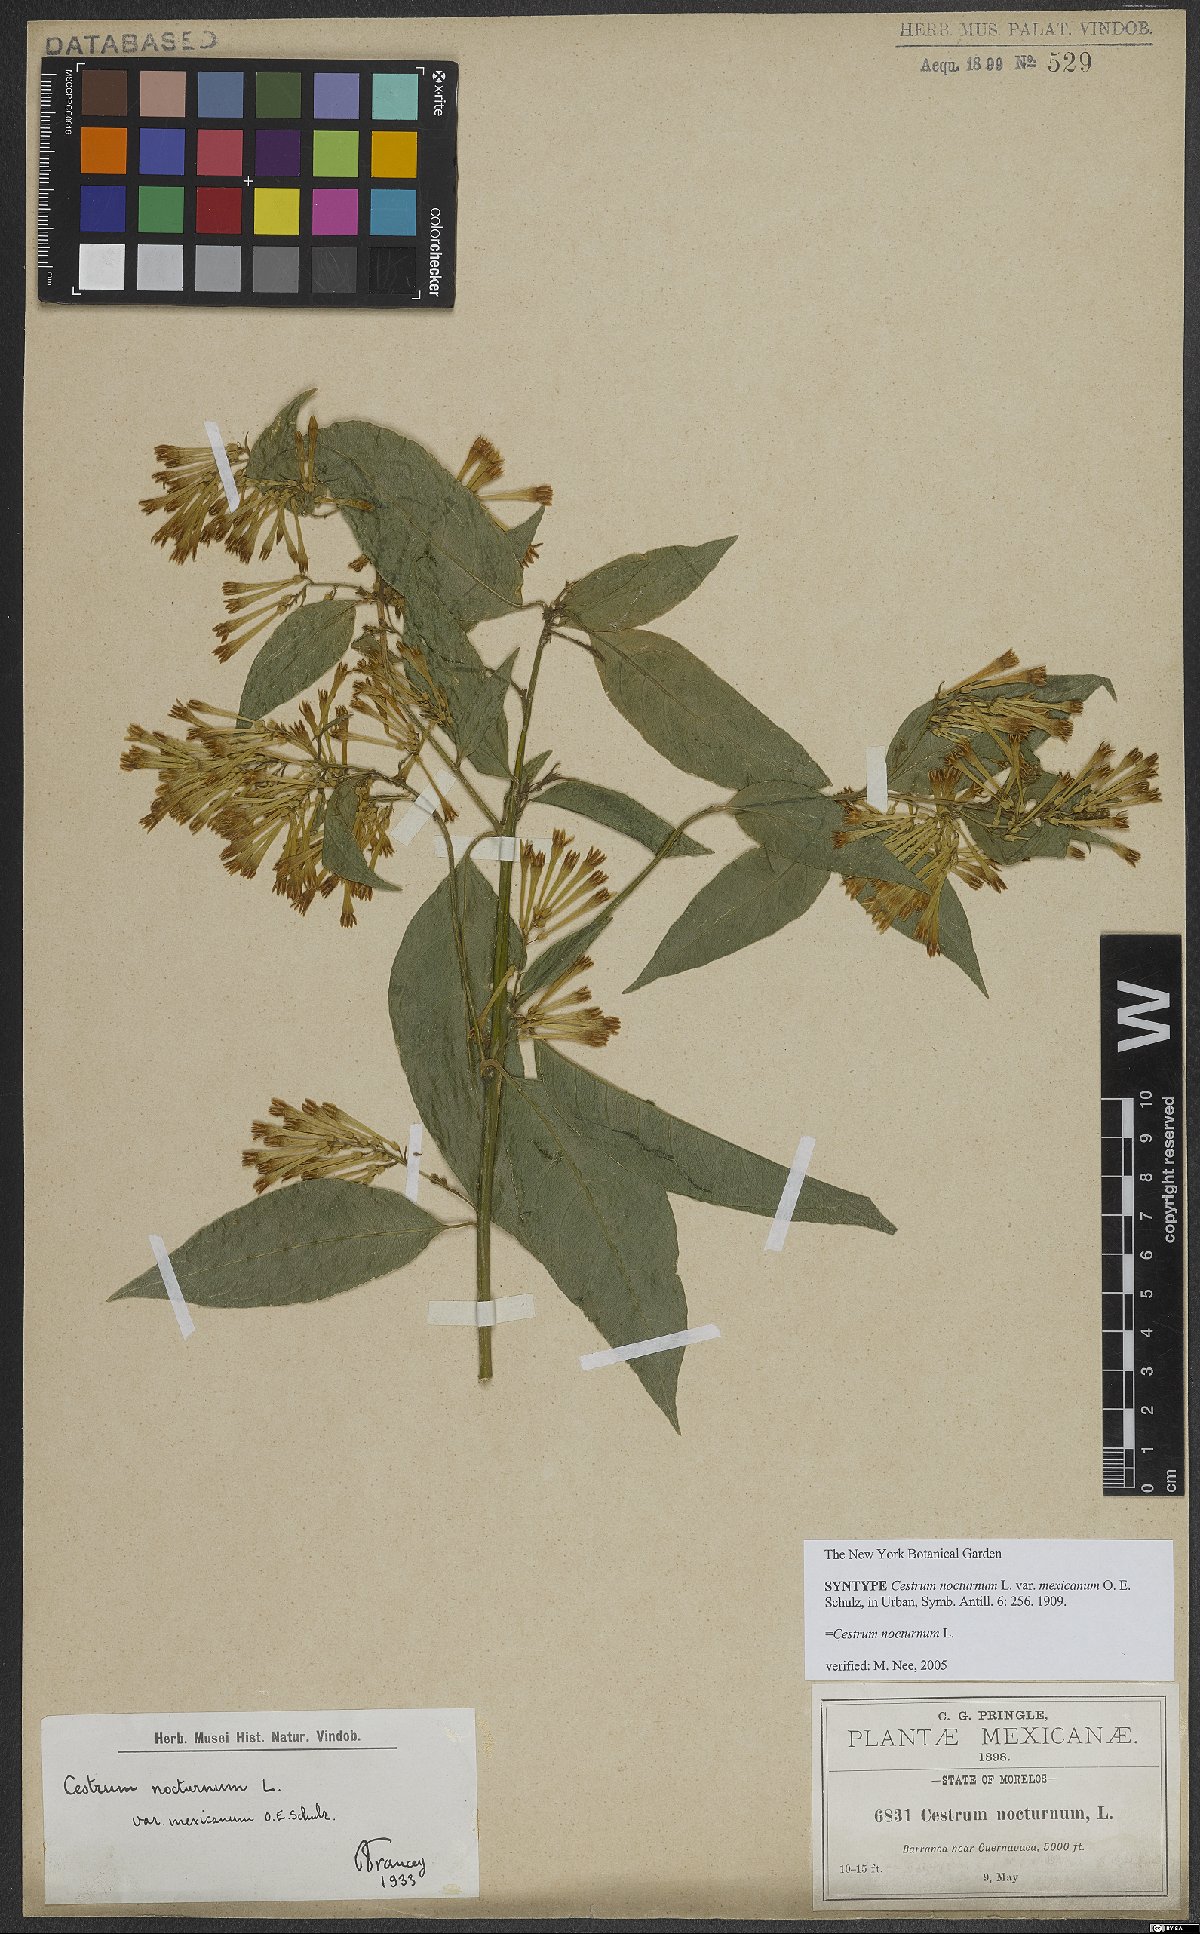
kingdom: Plantae
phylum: Tracheophyta
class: Magnoliopsida
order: Solanales
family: Solanaceae
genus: Cestrum
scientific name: Cestrum nocturnum
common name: Night jessamine
